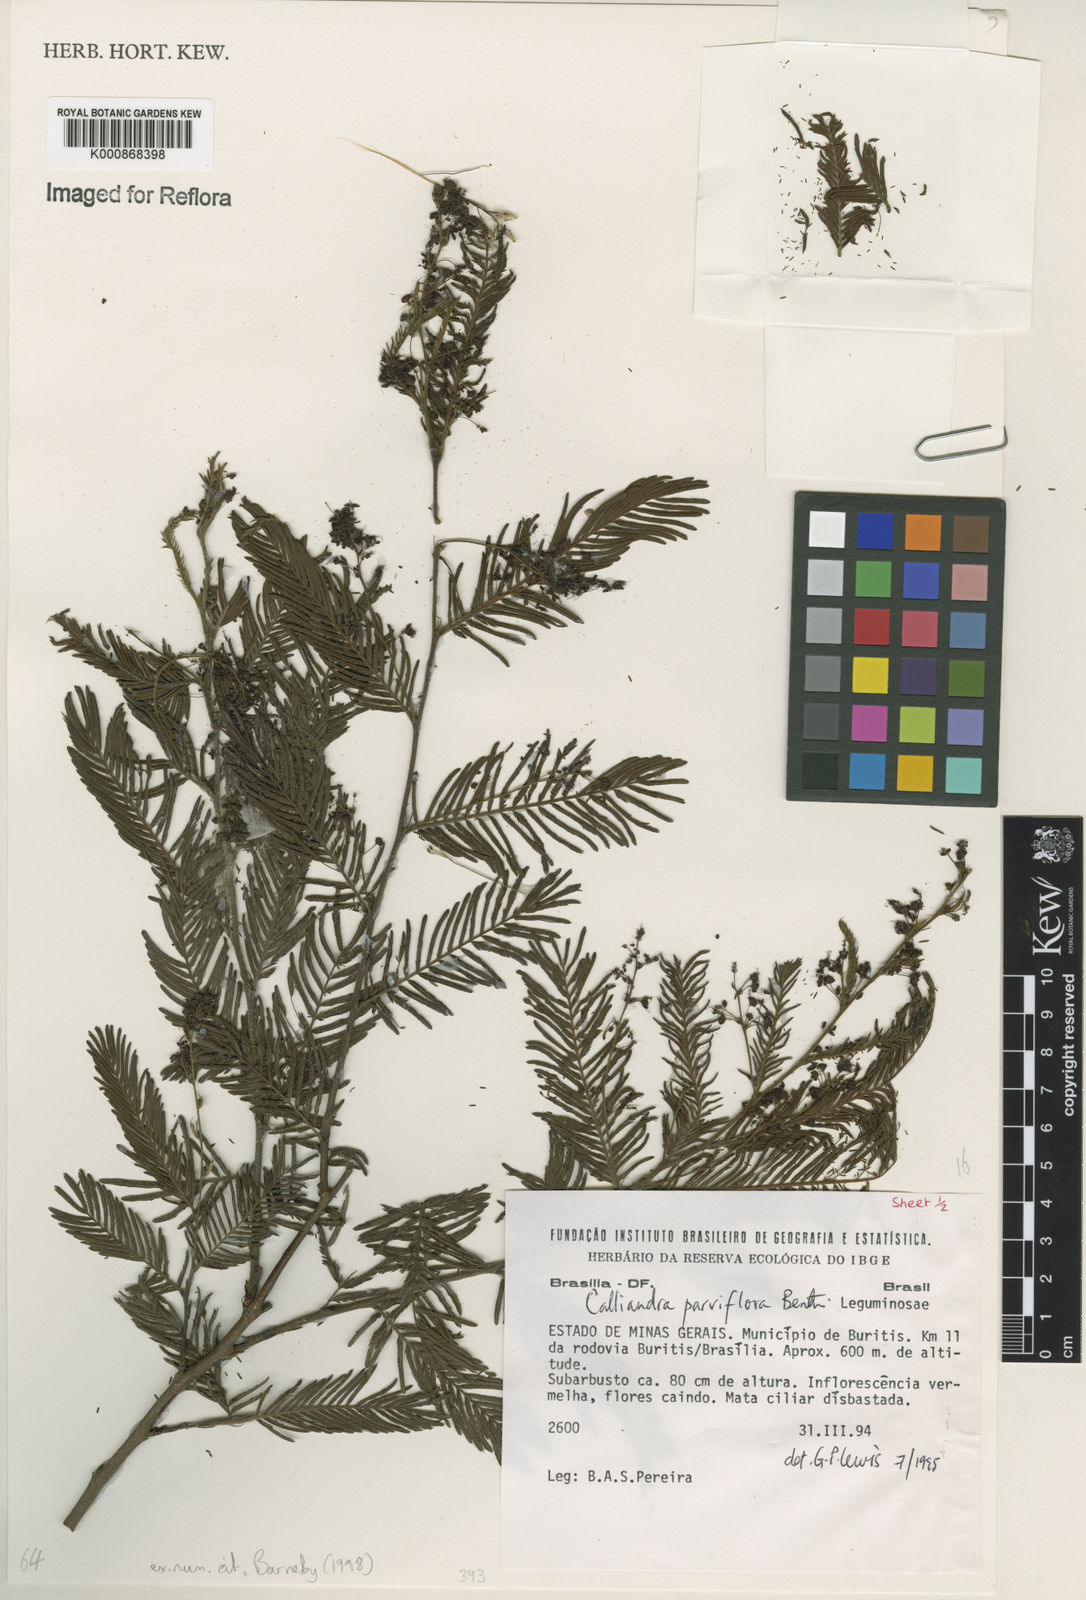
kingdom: Plantae
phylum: Tracheophyta
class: Magnoliopsida
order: Fabales
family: Fabaceae
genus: Calliandra
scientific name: Calliandra parviflora
